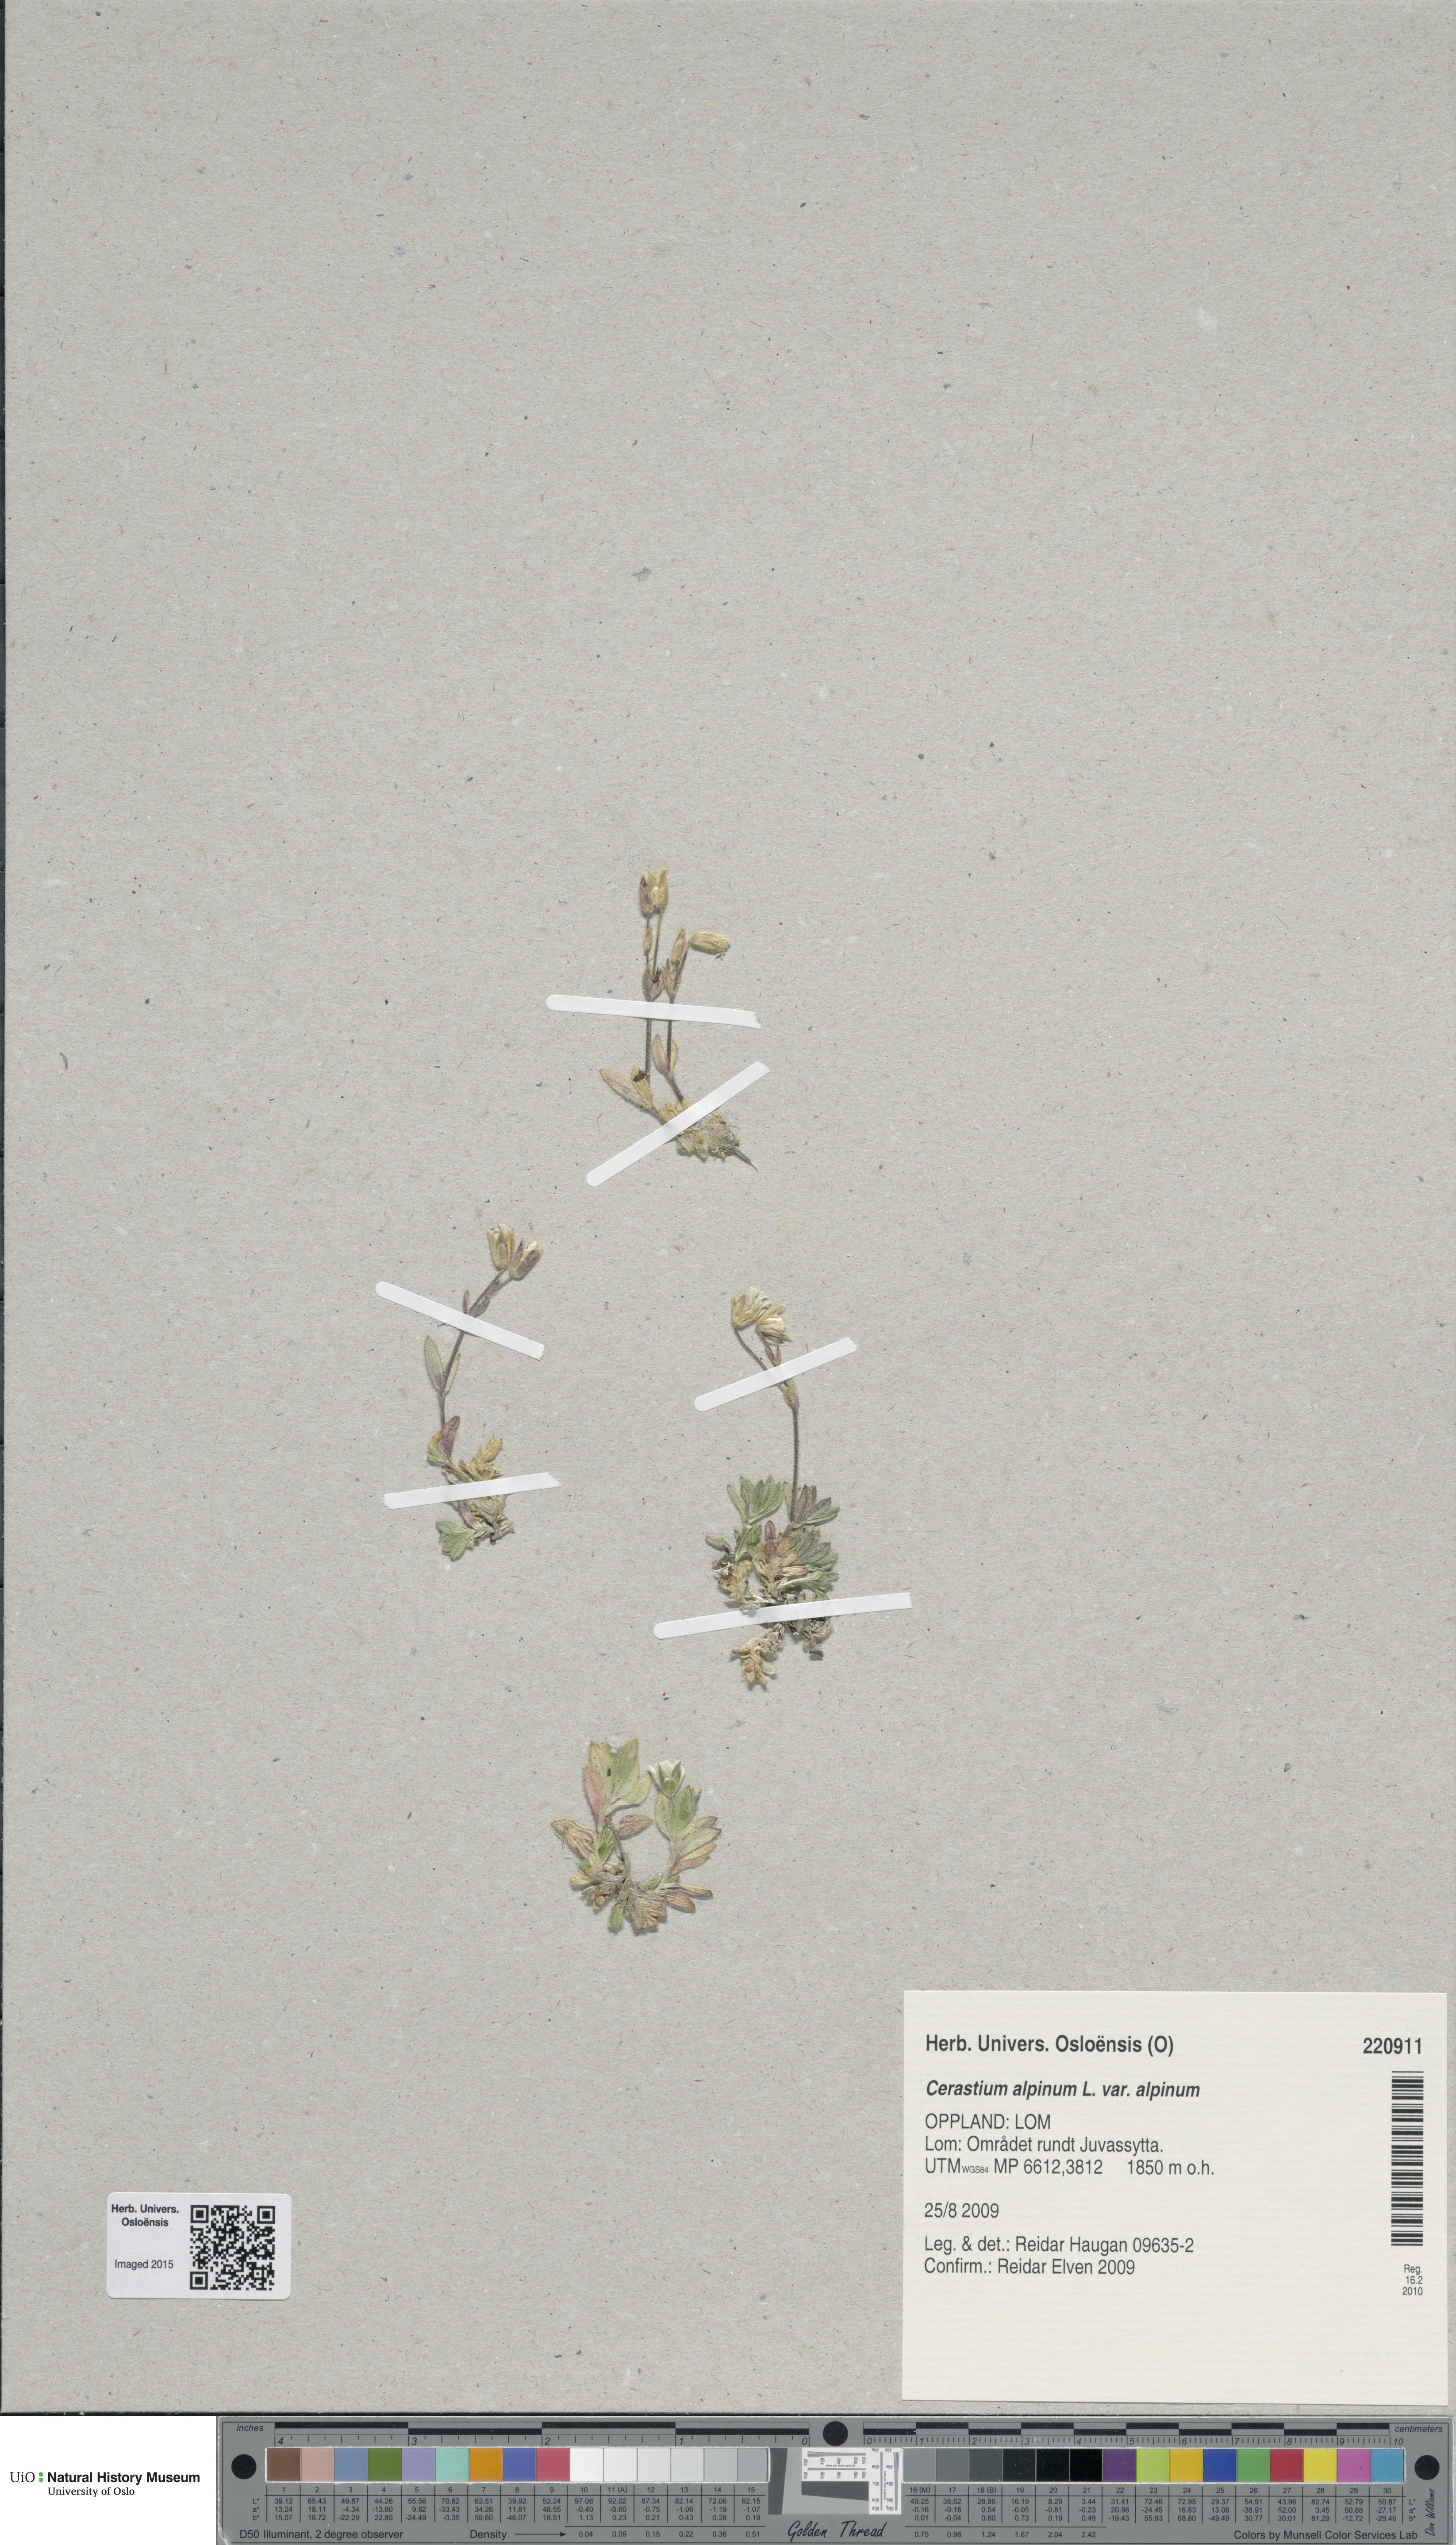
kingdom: Plantae
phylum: Tracheophyta
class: Magnoliopsida
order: Caryophyllales
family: Caryophyllaceae
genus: Cerastium
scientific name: Cerastium alpinum
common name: Alpine mouse-ear
